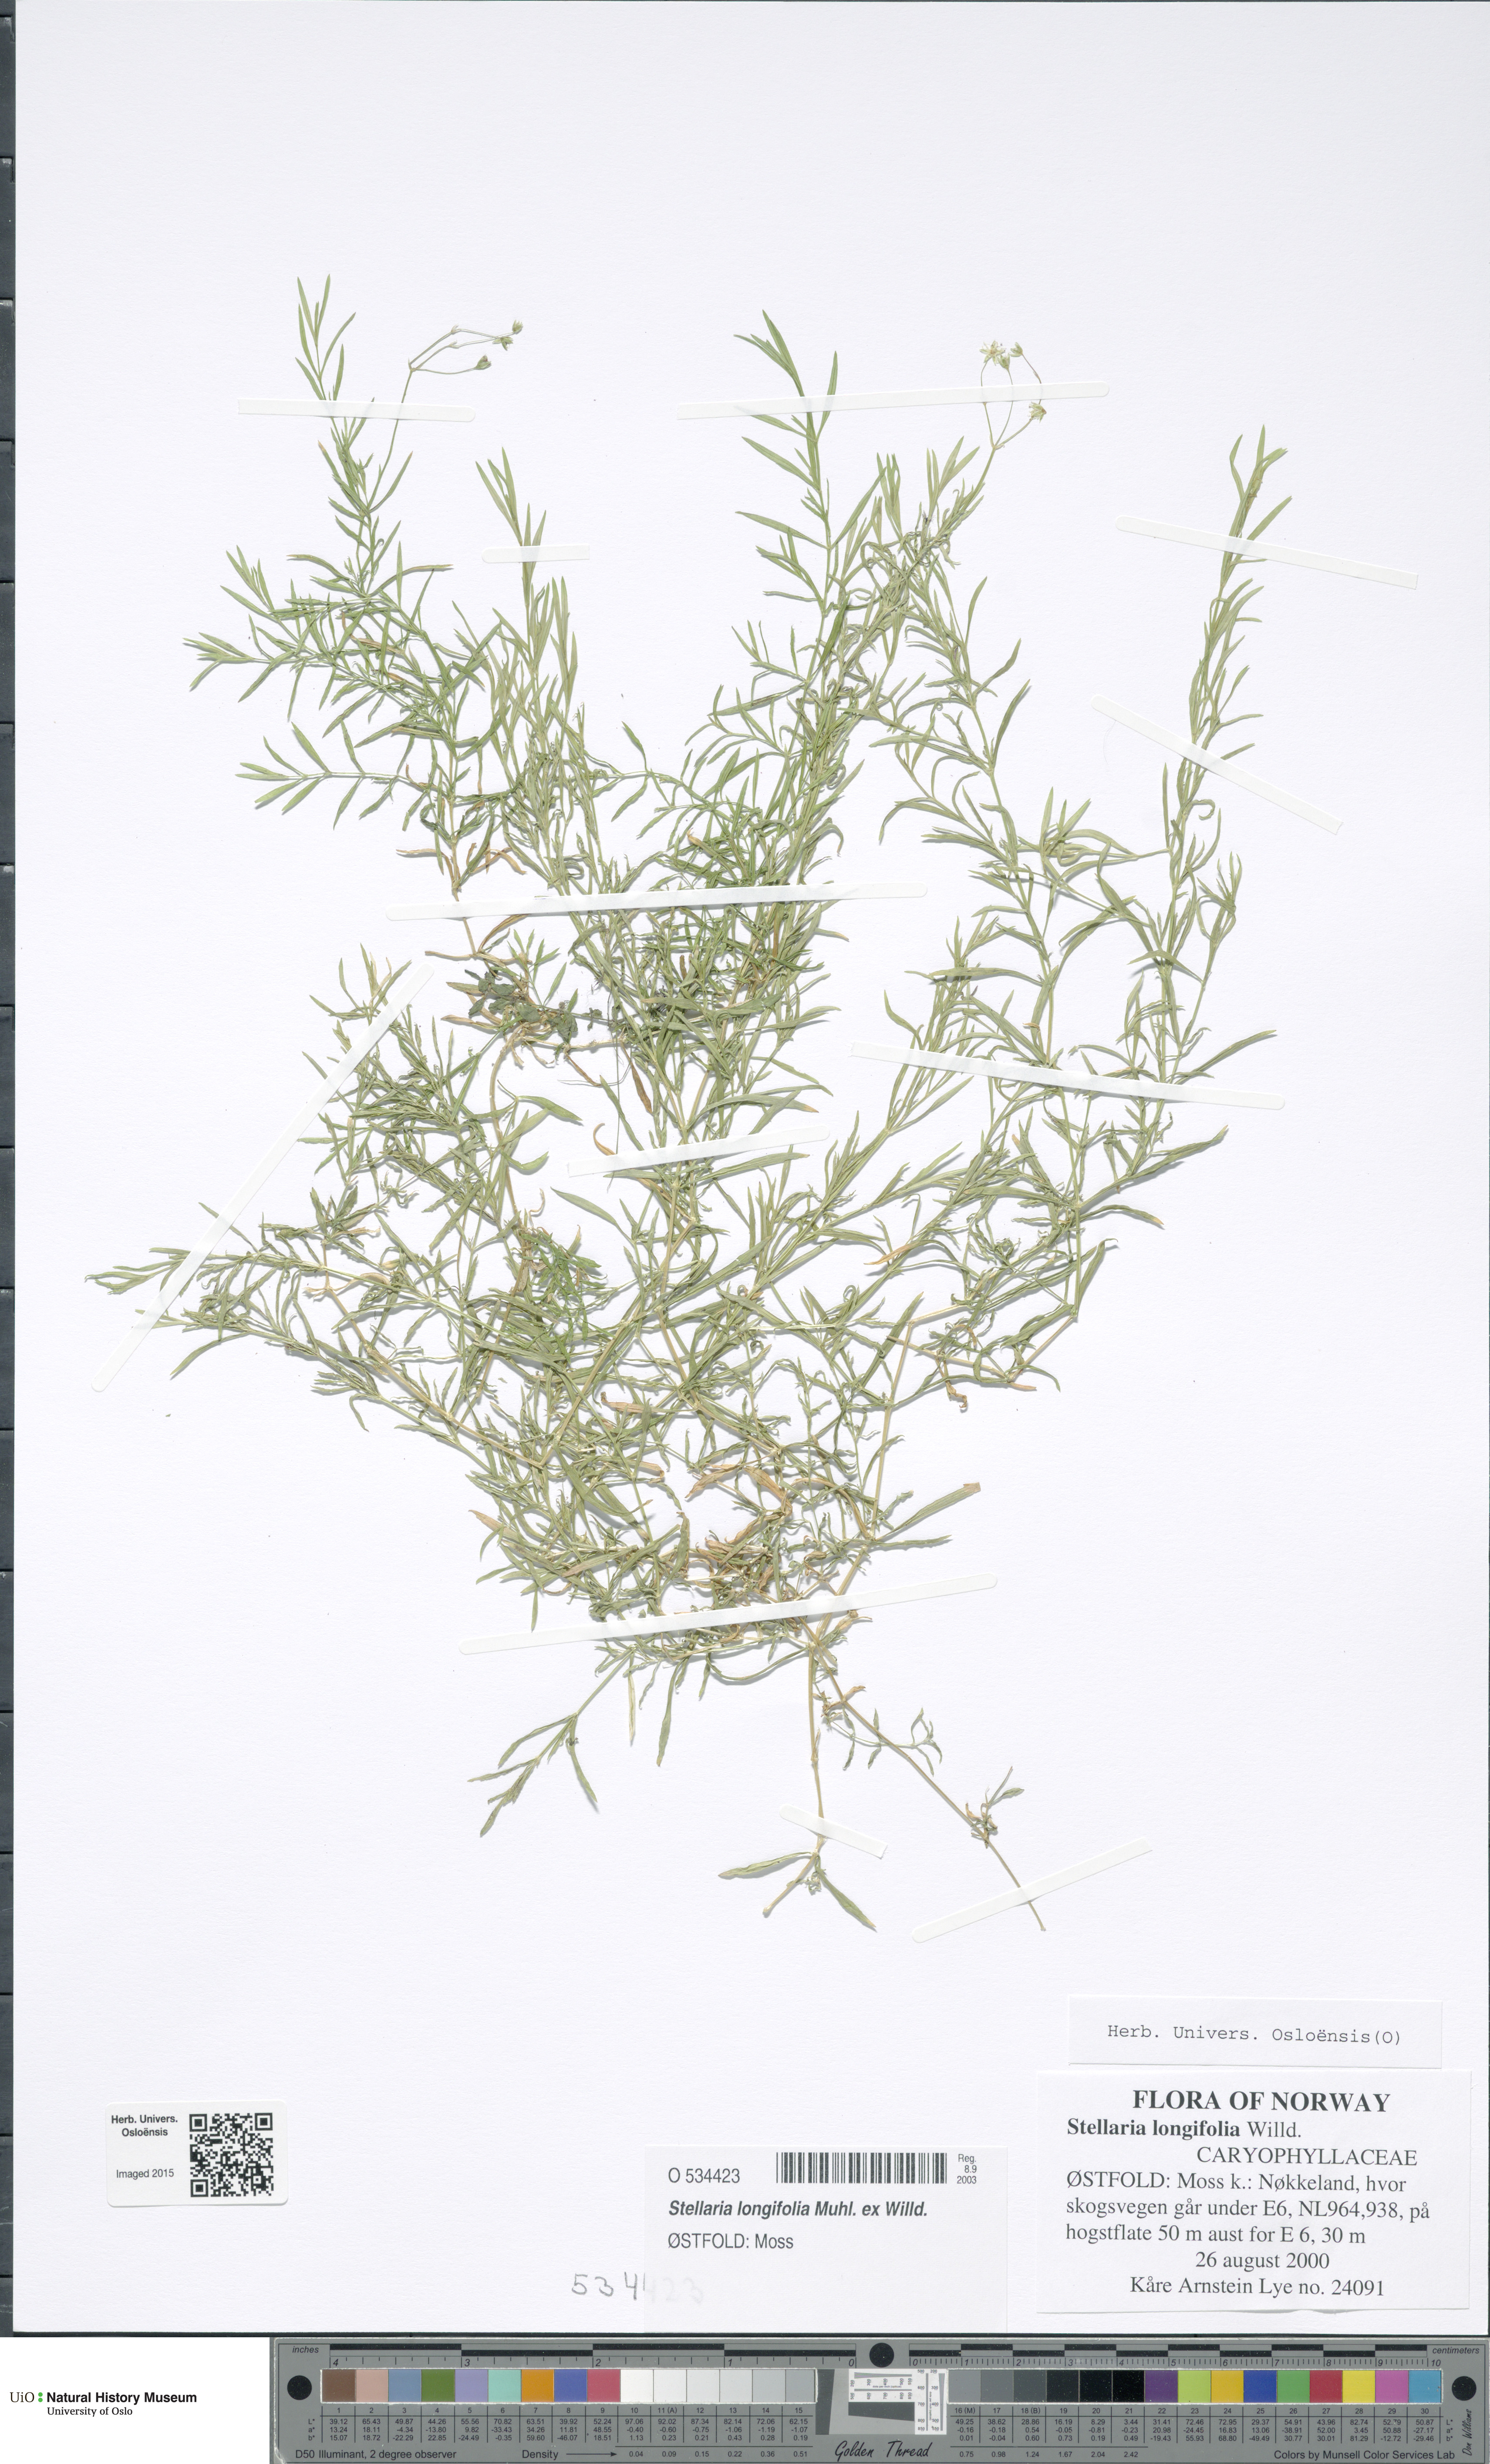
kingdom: Plantae
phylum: Tracheophyta
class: Magnoliopsida
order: Caryophyllales
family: Caryophyllaceae
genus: Stellaria
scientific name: Stellaria longifolia
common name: Long-leaved chickweed
